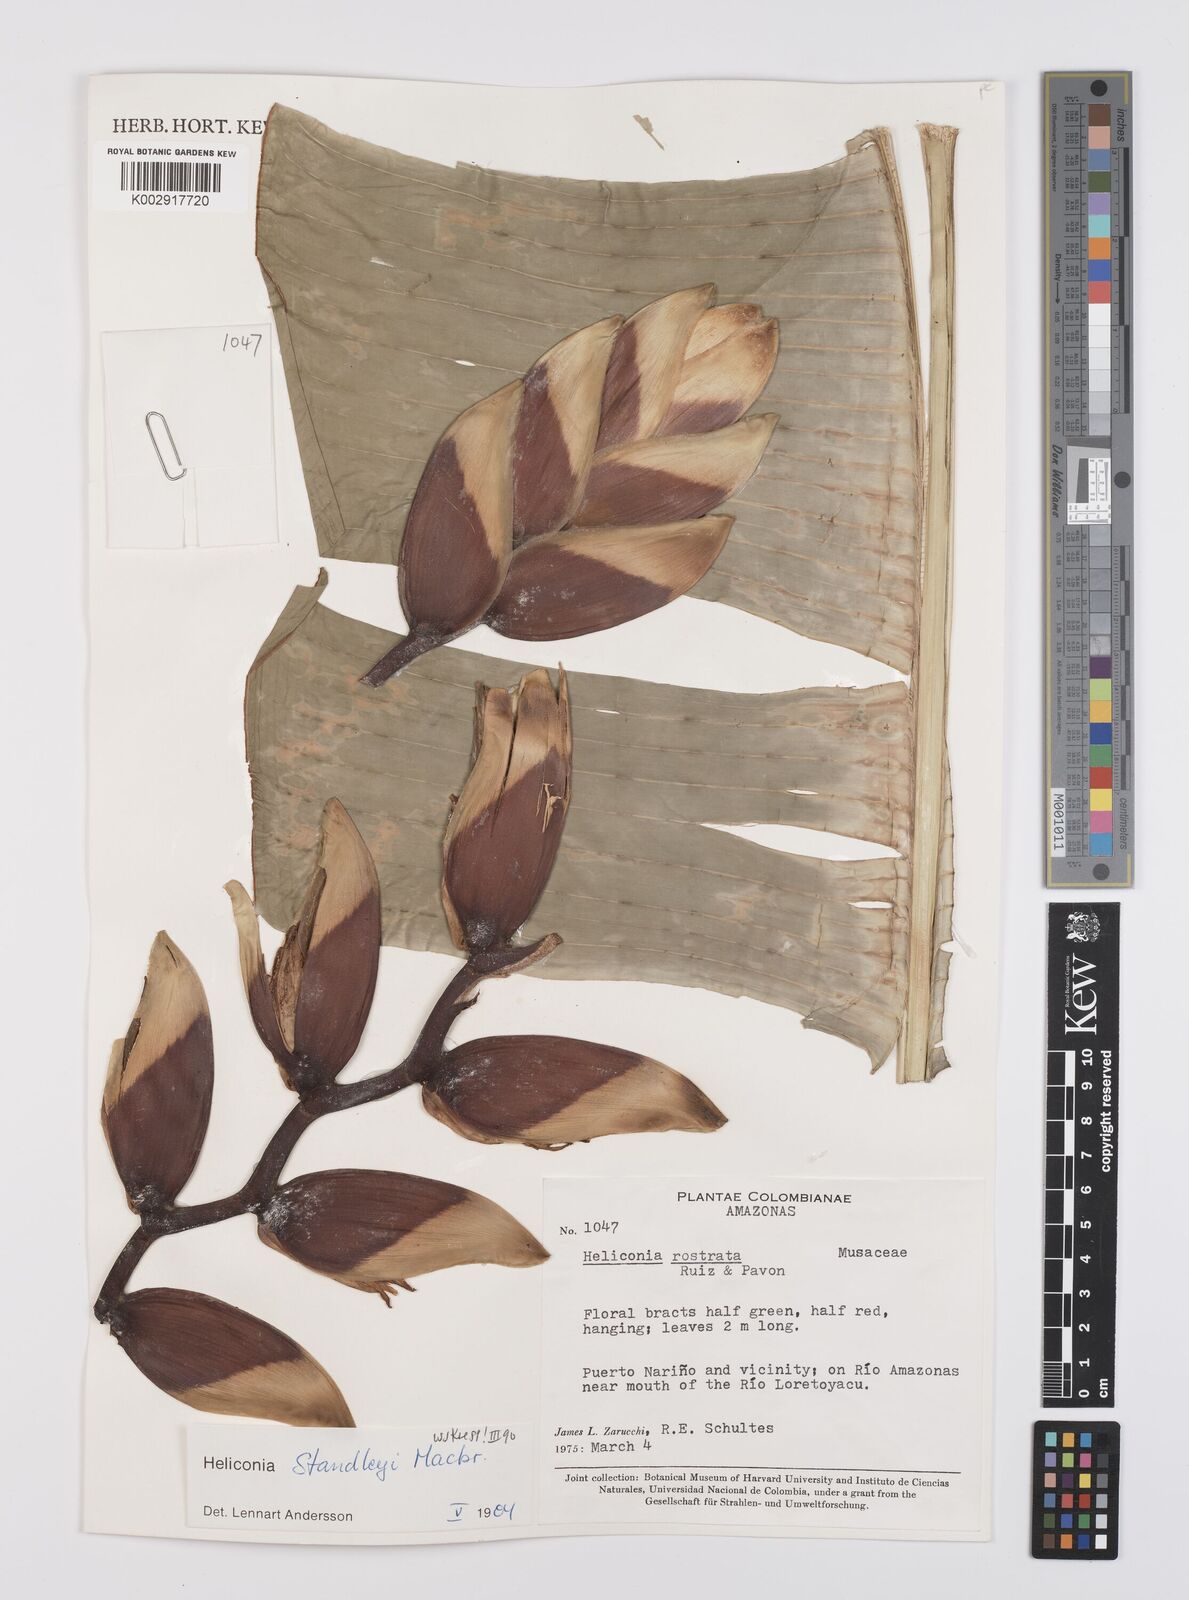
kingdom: Plantae
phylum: Tracheophyta
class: Liliopsida
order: Zingiberales
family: Heliconiaceae
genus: Heliconia
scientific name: Heliconia standleyi
